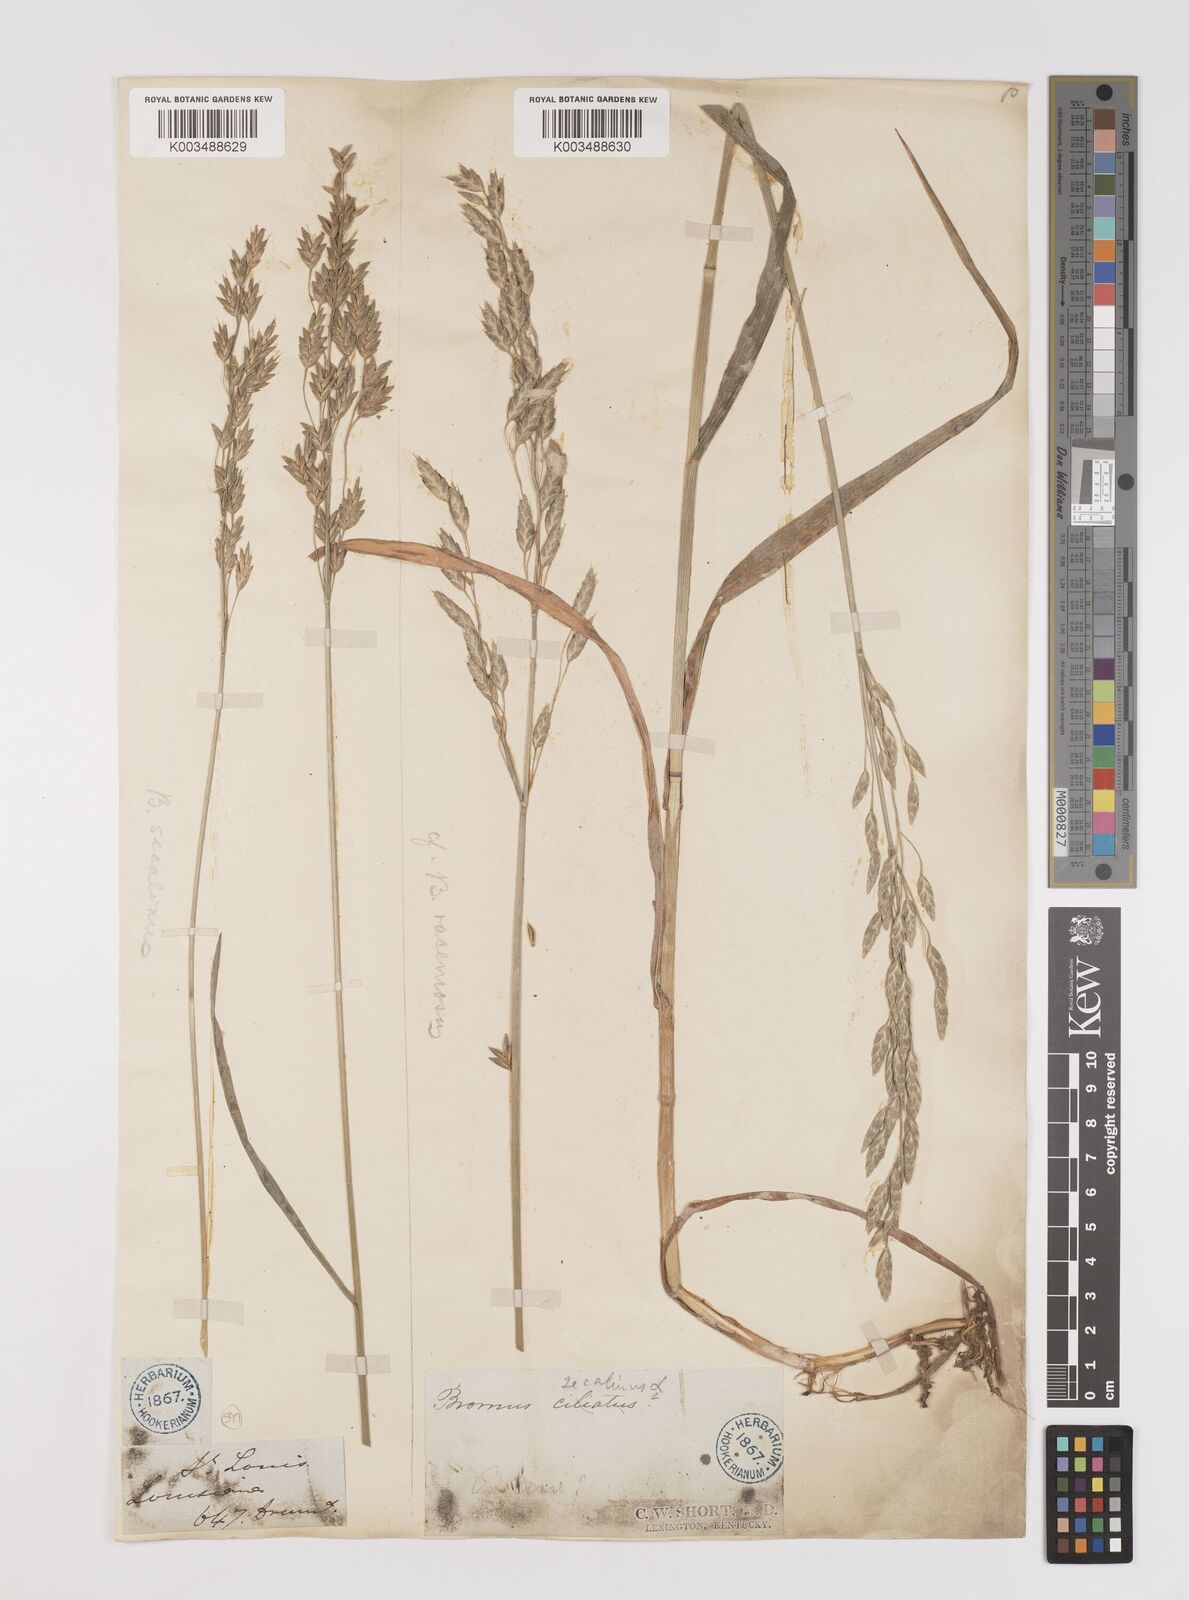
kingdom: Plantae
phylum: Tracheophyta
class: Liliopsida
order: Poales
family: Poaceae
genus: Bromus
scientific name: Bromus secalinus
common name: Rye brome
